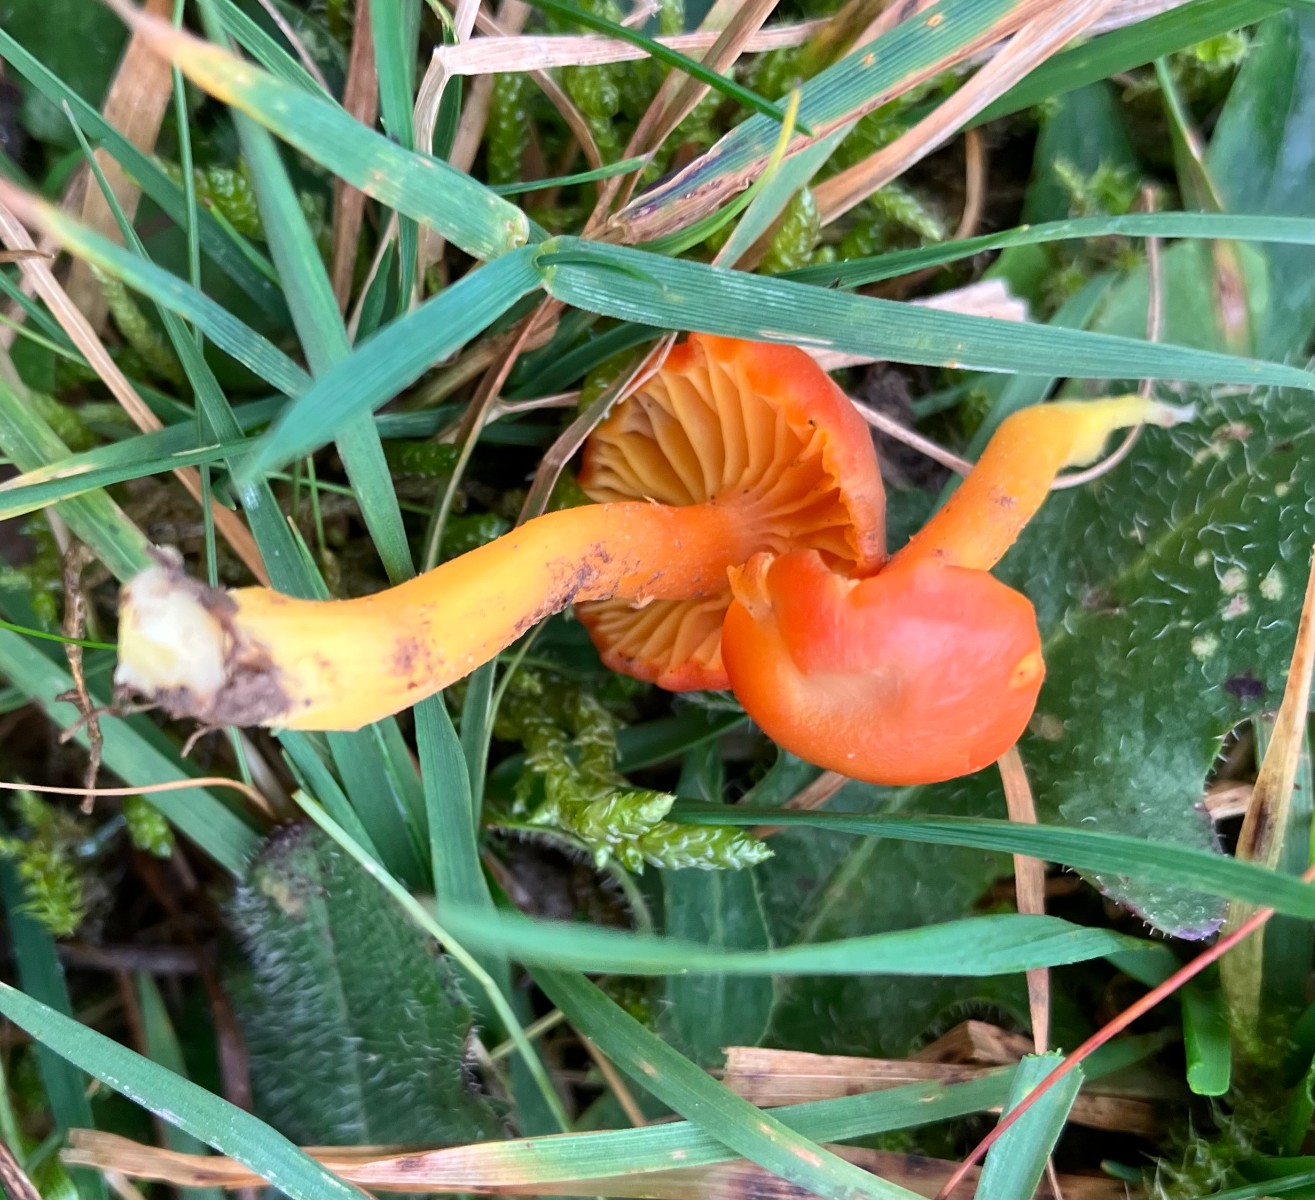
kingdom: Fungi
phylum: Basidiomycota
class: Agaricomycetes
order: Agaricales
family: Hygrophoraceae
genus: Hygrocybe
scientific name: Hygrocybe miniata
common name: mønje-vokshat
